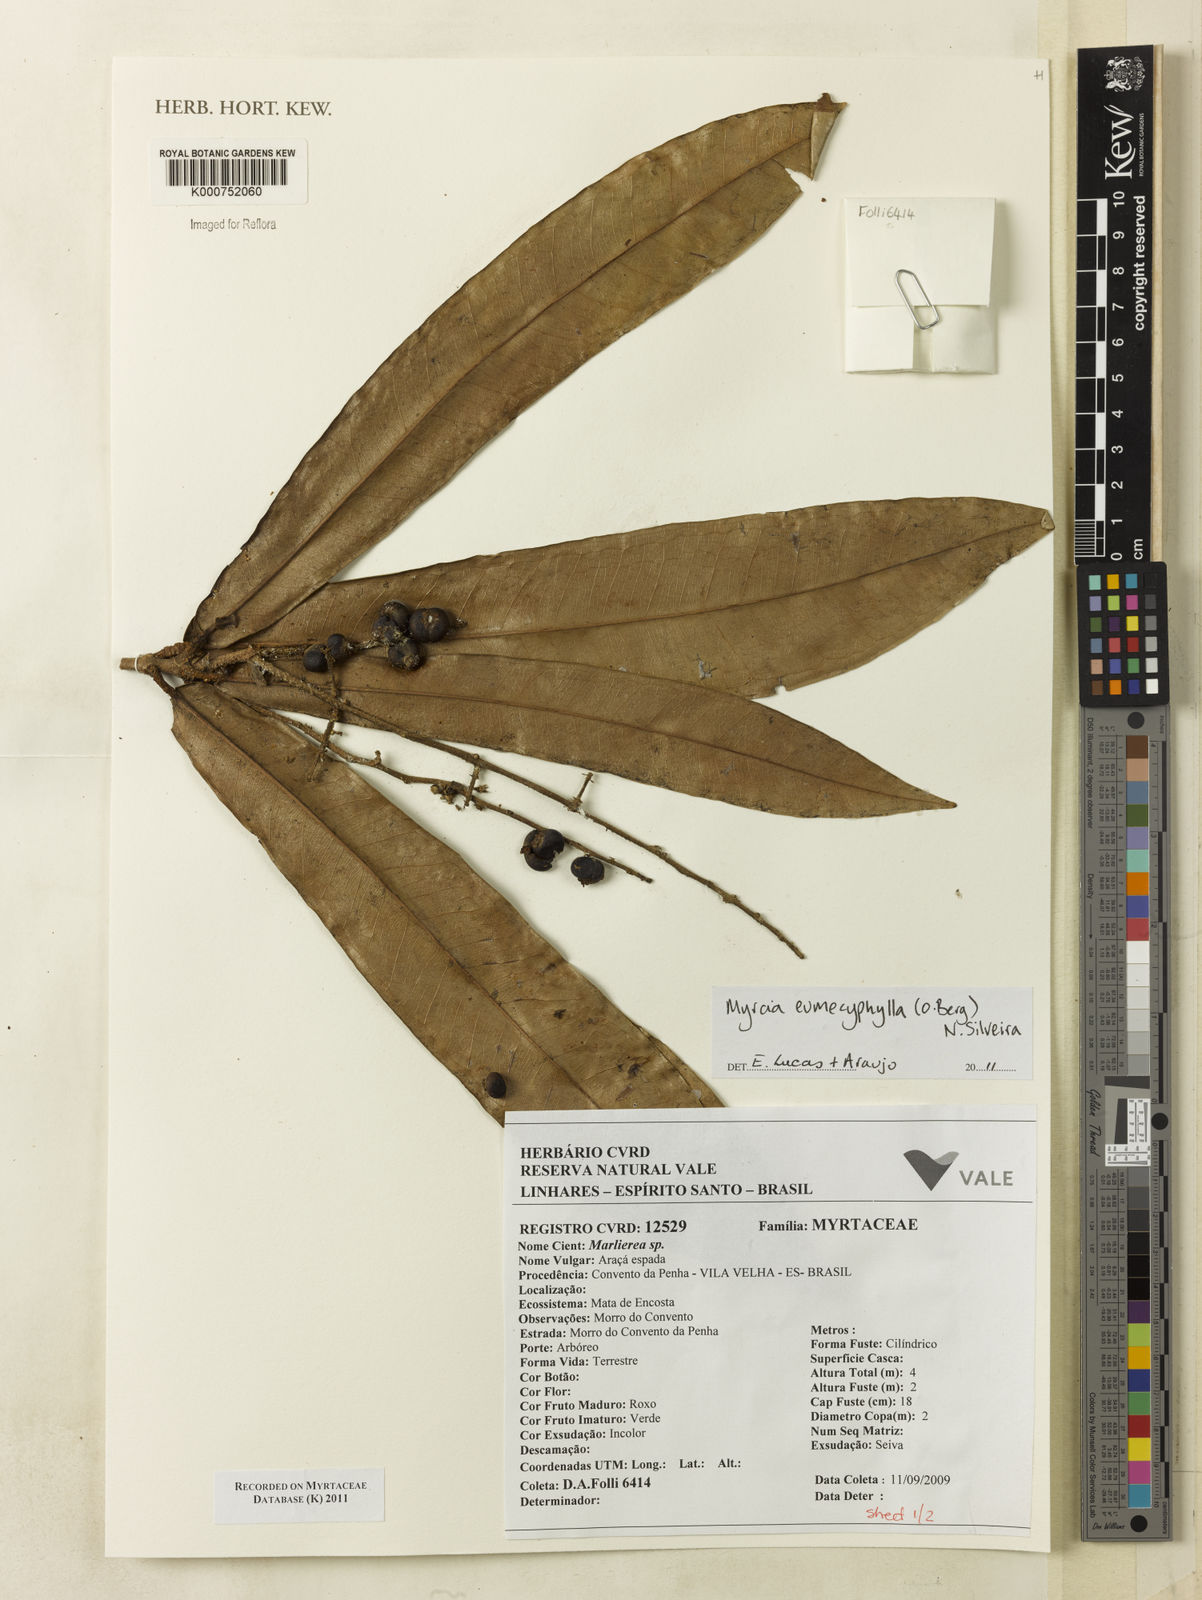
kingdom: Plantae
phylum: Tracheophyta
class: Magnoliopsida
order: Myrtales
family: Myrtaceae
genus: Myrcia
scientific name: Myrcia
